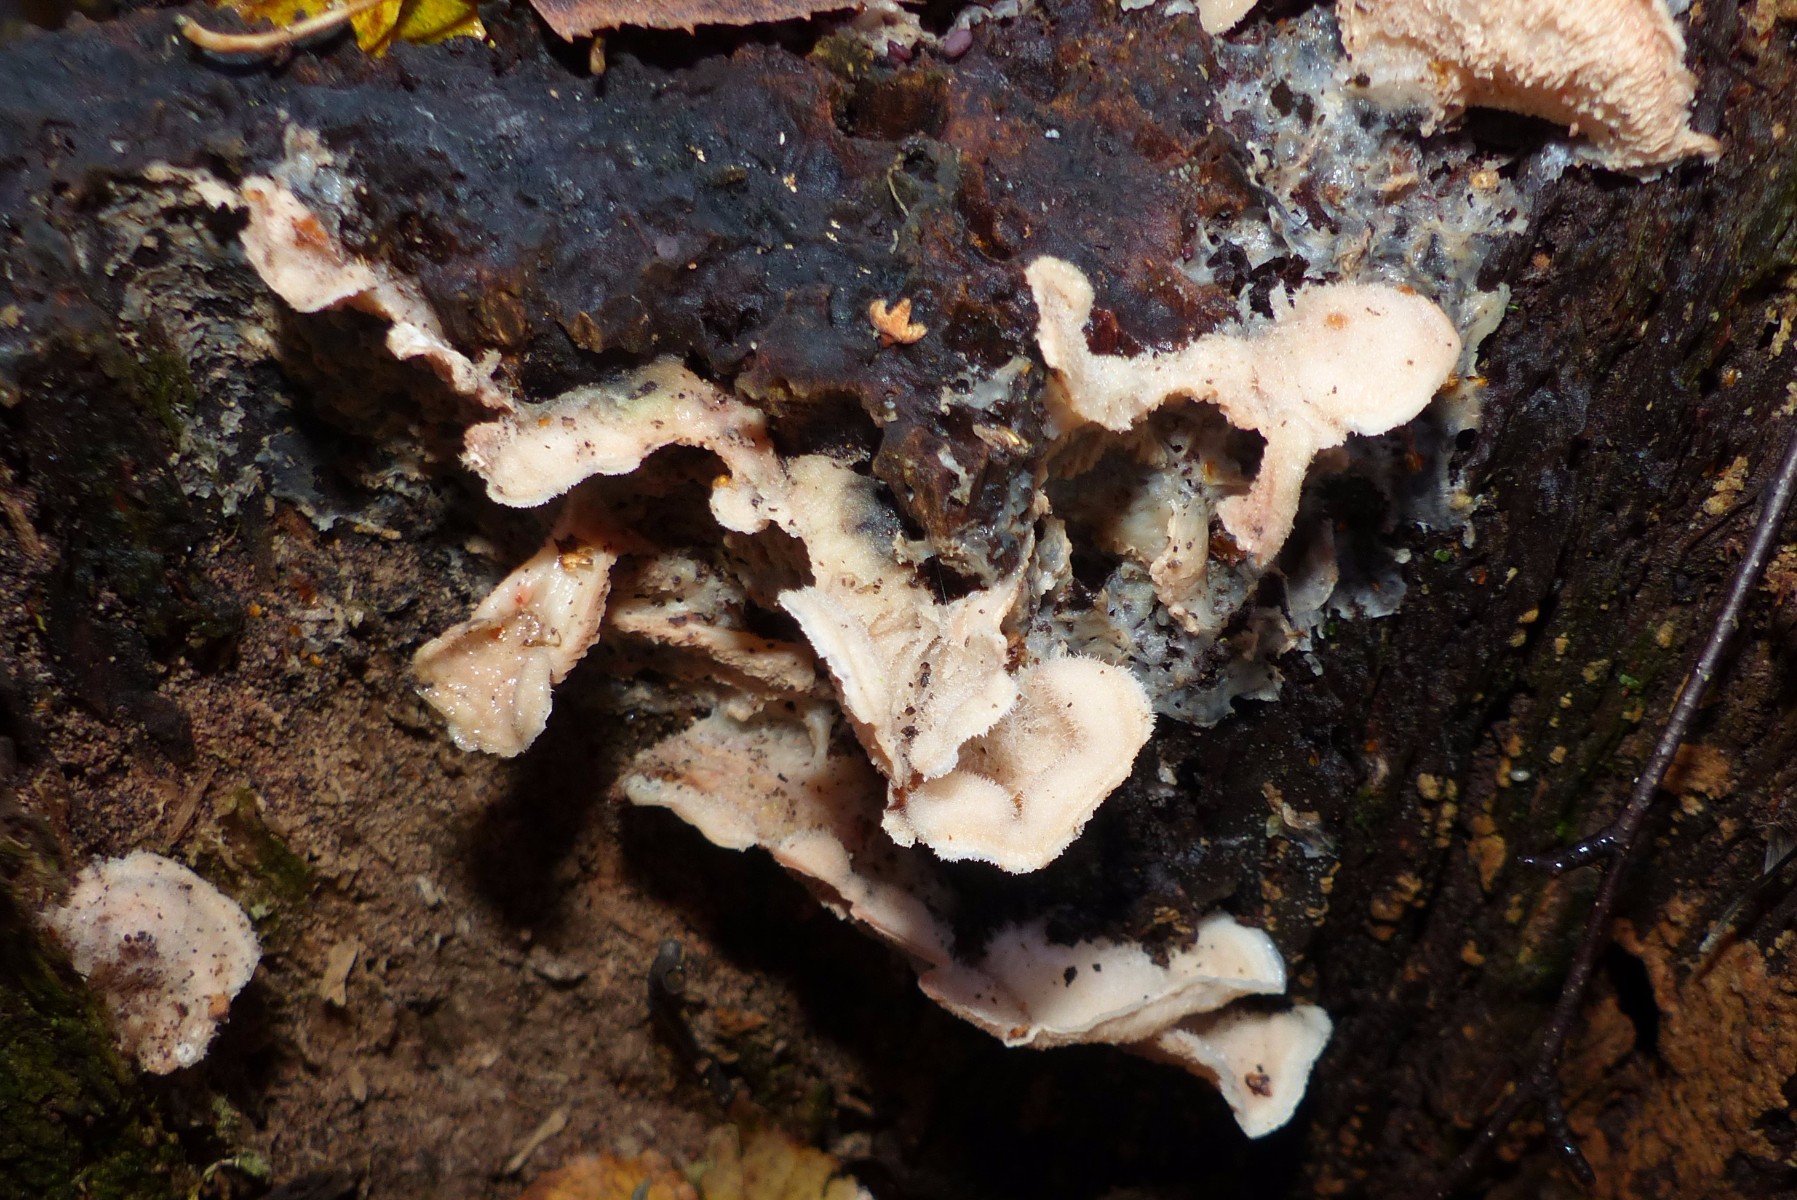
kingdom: Fungi
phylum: Basidiomycota
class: Agaricomycetes
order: Polyporales
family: Meruliaceae
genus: Phlebia
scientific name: Phlebia tremellosa
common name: bævrende åresvamp
